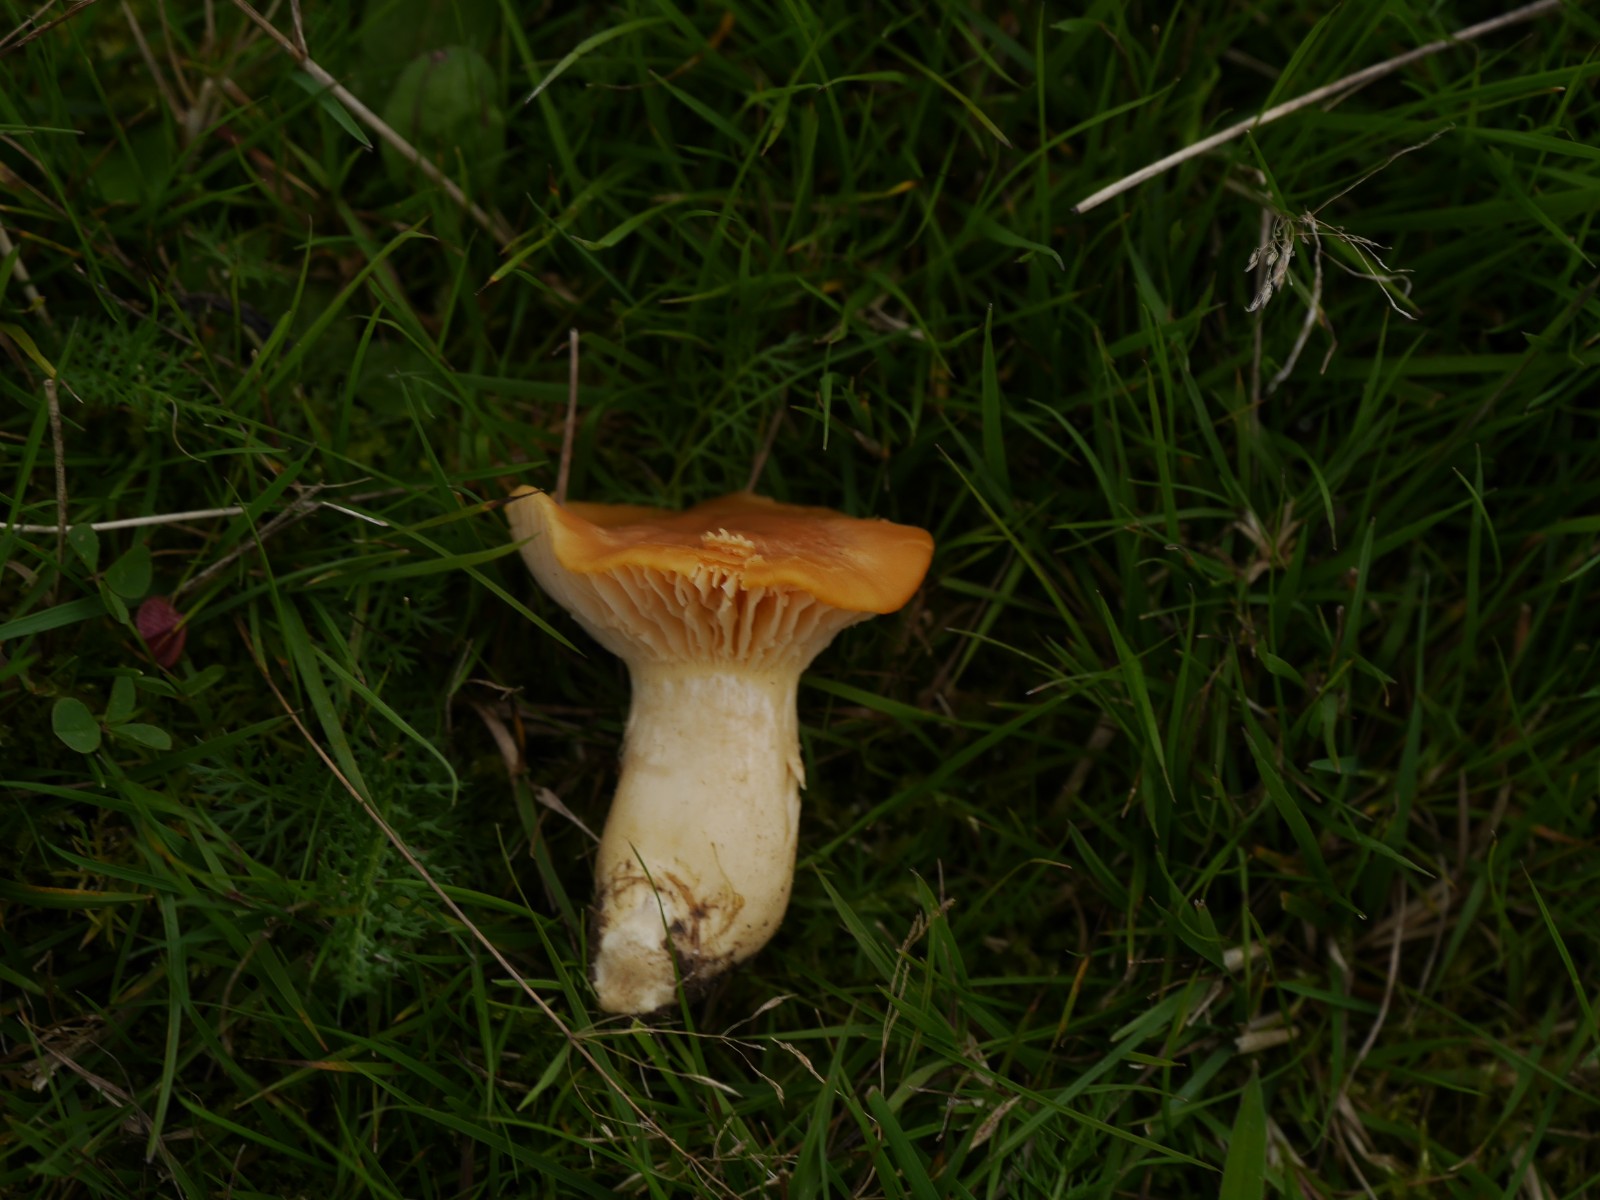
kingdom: Fungi
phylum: Basidiomycota
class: Agaricomycetes
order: Agaricales
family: Hygrophoraceae
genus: Cuphophyllus
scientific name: Cuphophyllus pratensis
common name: eng-vokshat
